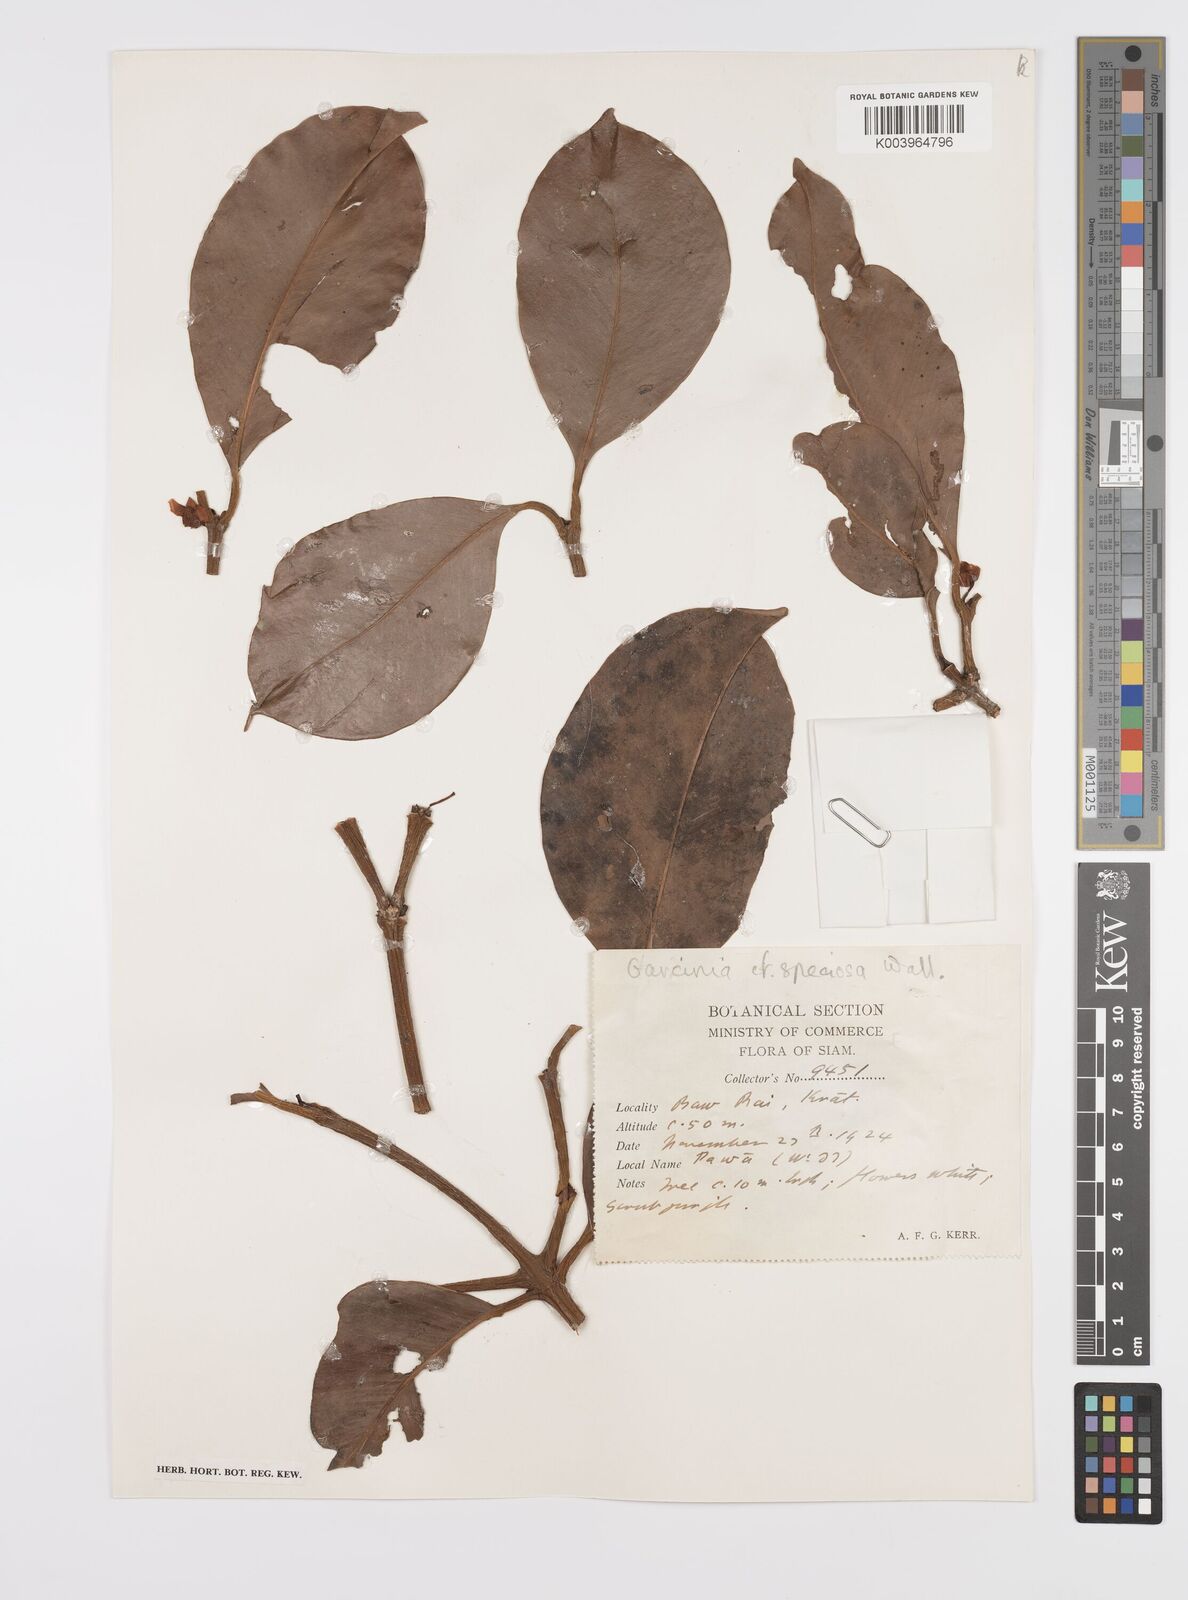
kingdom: Plantae
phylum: Tracheophyta
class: Magnoliopsida
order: Malpighiales
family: Clusiaceae
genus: Garcinia
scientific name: Garcinia celebica
